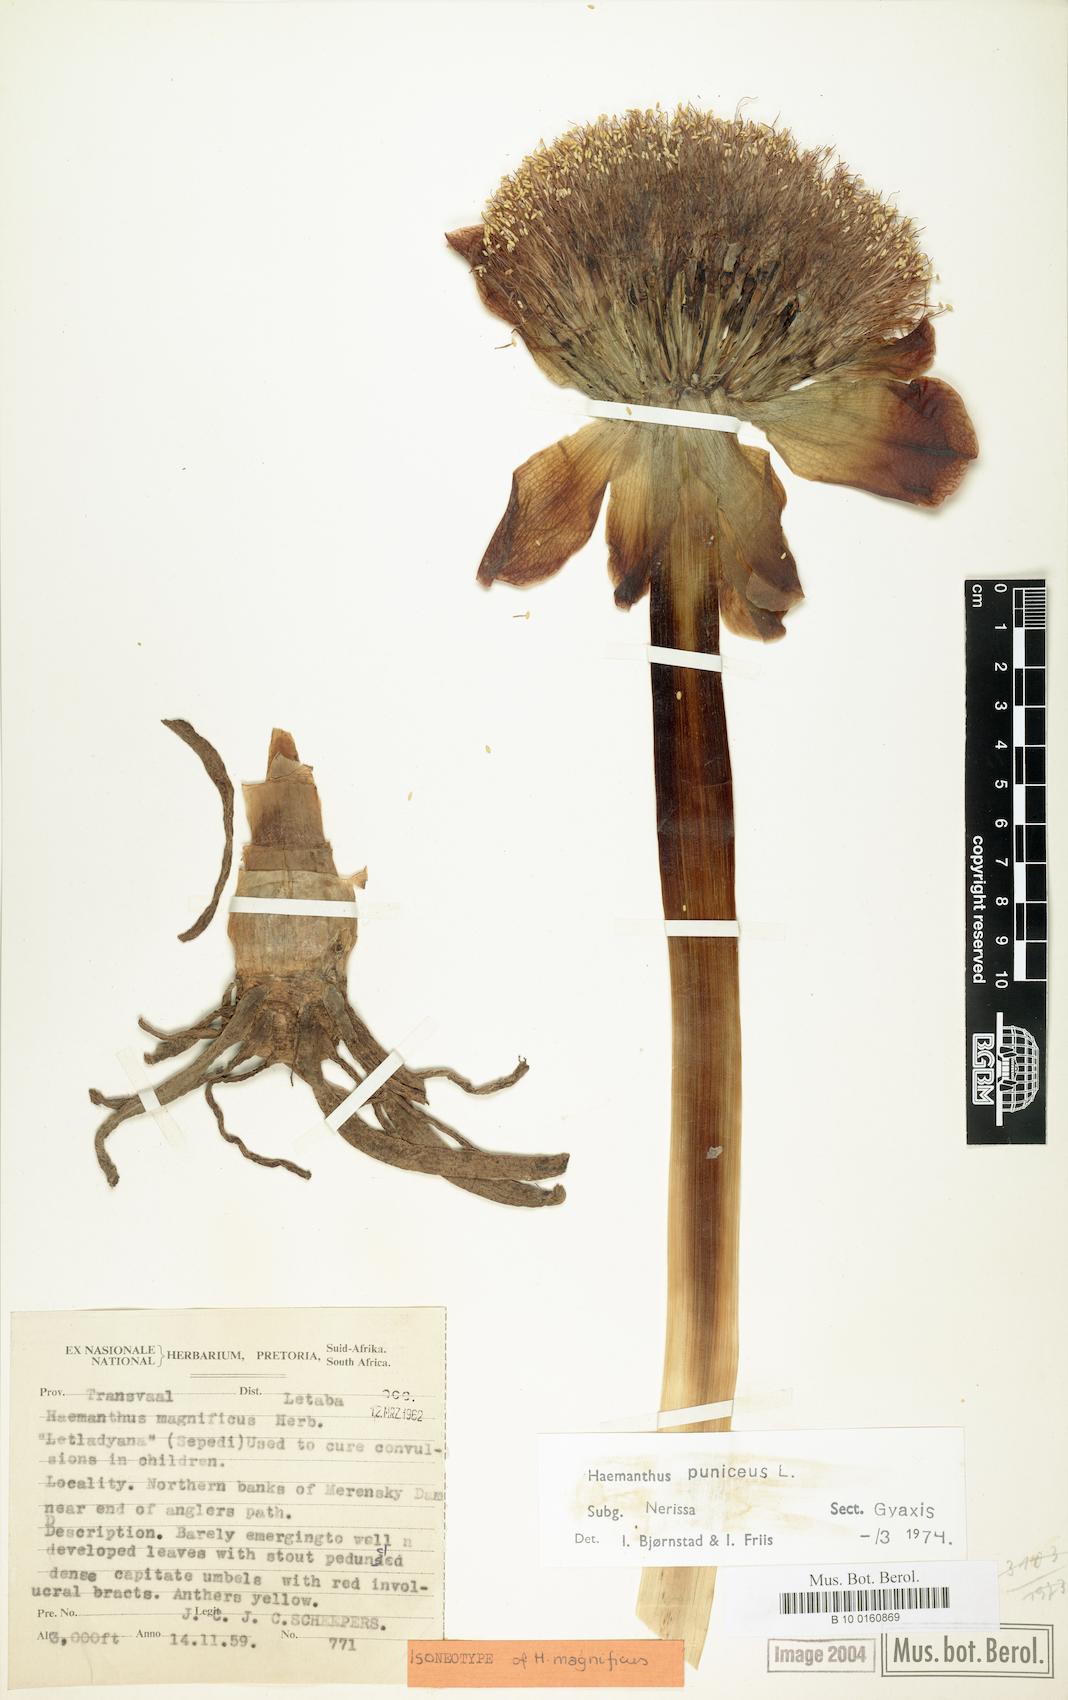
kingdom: Plantae
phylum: Tracheophyta
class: Liliopsida
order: Asparagales
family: Amaryllidaceae
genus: Scadoxus
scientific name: Scadoxus puniceus
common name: Royal-paintbrush
